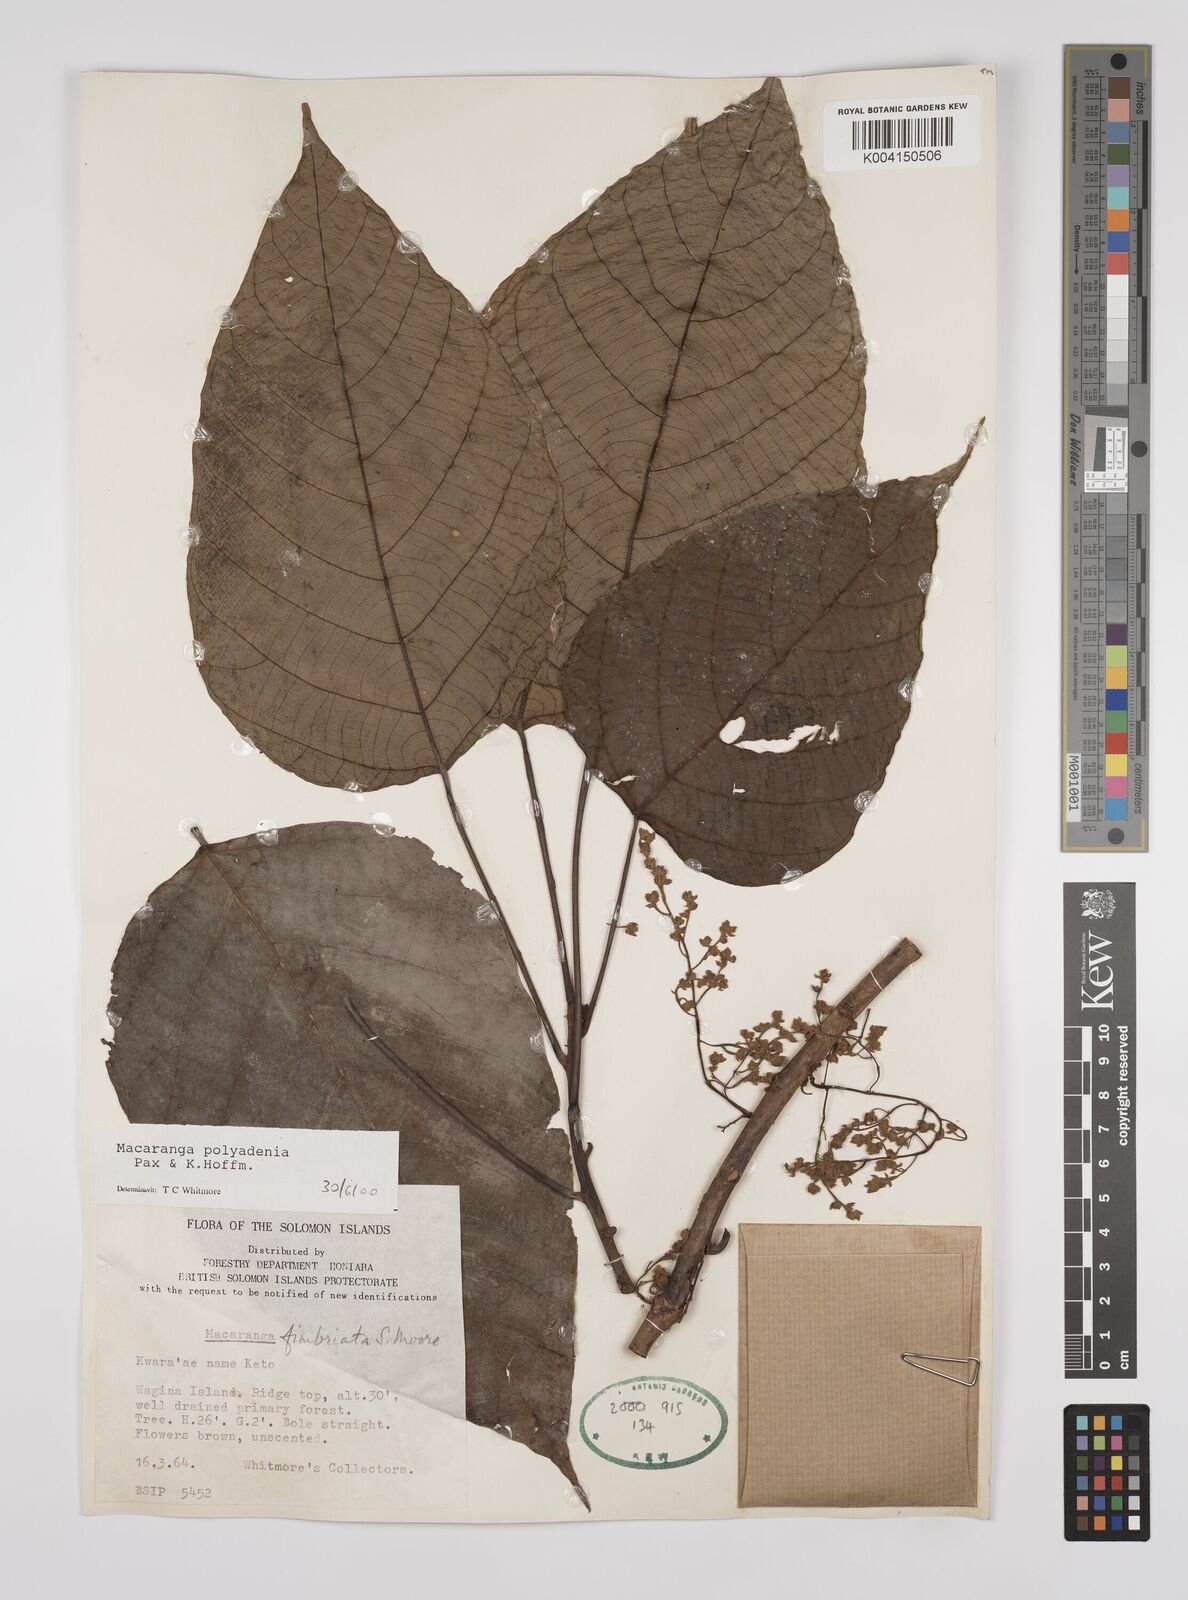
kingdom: Plantae
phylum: Tracheophyta
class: Magnoliopsida
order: Malpighiales
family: Euphorbiaceae
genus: Macaranga
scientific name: Macaranga polyadenia
